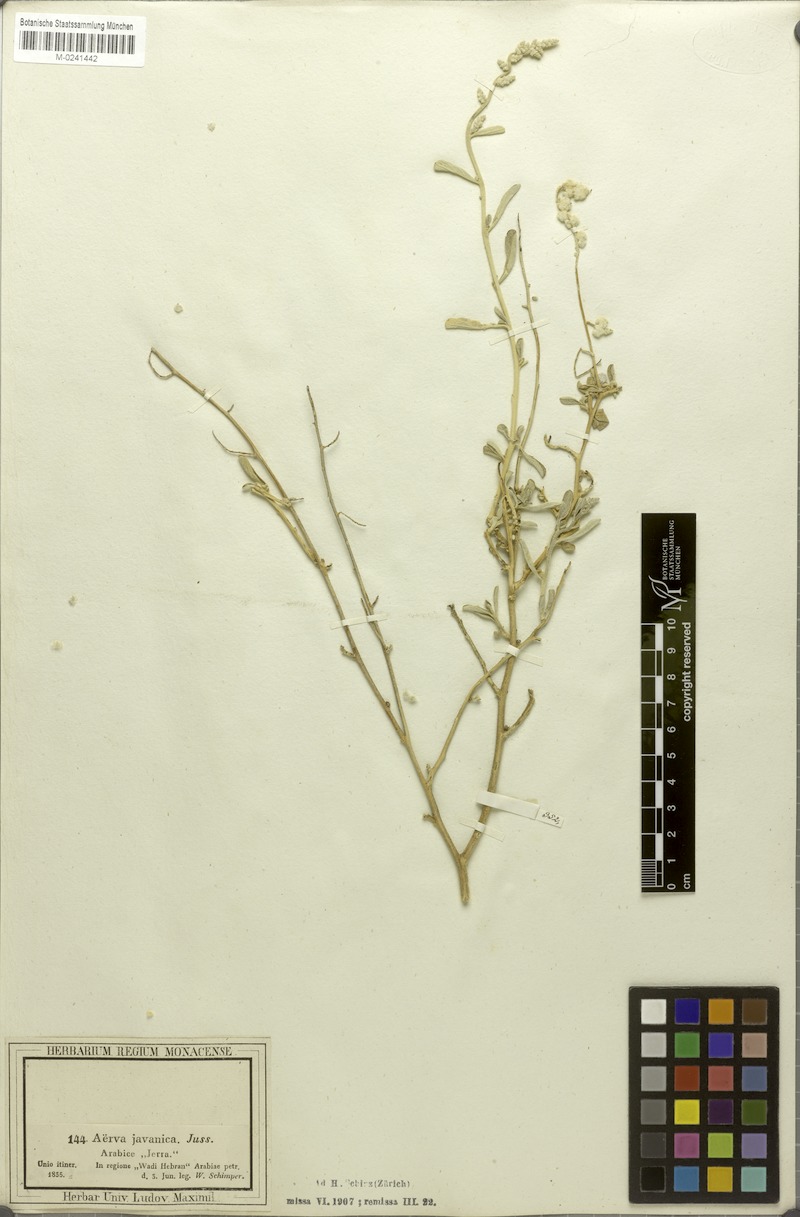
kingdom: Plantae
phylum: Tracheophyta
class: Magnoliopsida
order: Caryophyllales
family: Amaranthaceae
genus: Aerva
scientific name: Aerva javanica
